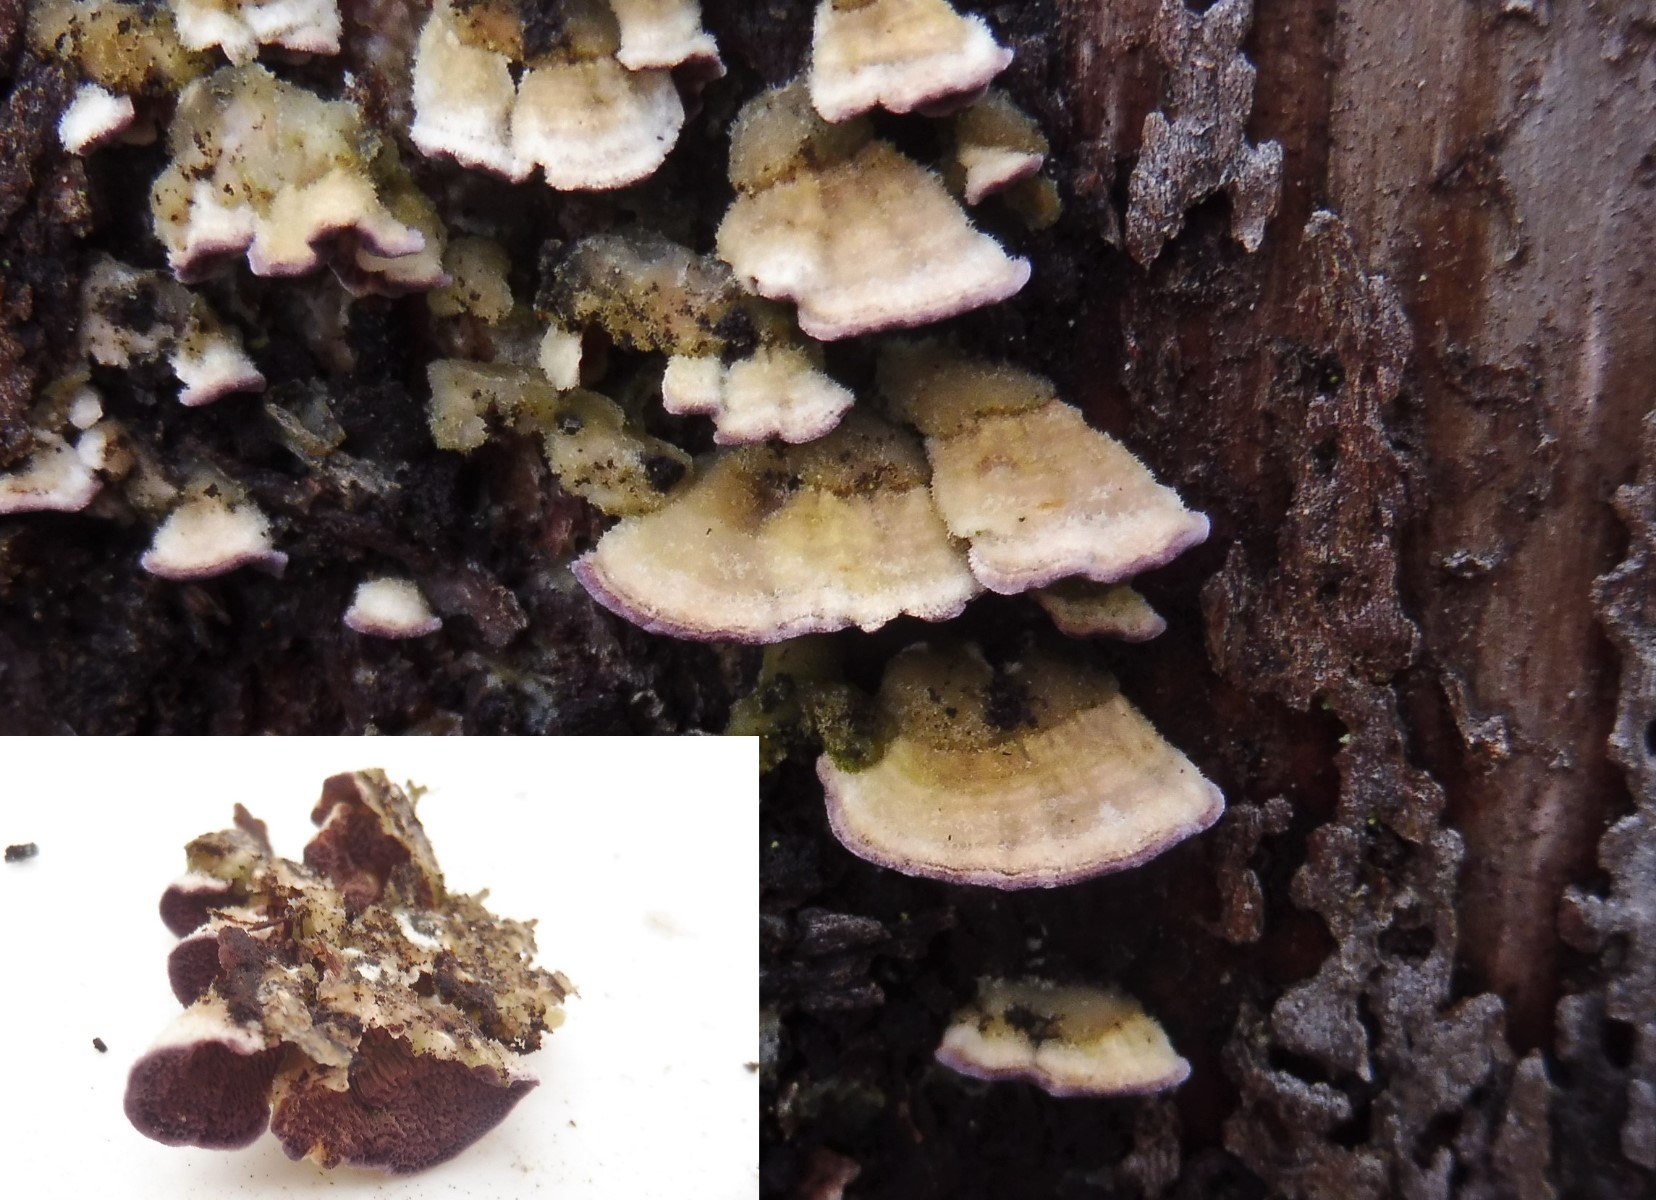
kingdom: Fungi
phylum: Basidiomycota
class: Agaricomycetes
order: Hymenochaetales
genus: Trichaptum
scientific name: Trichaptum abietinum
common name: almindelig violporesvamp
